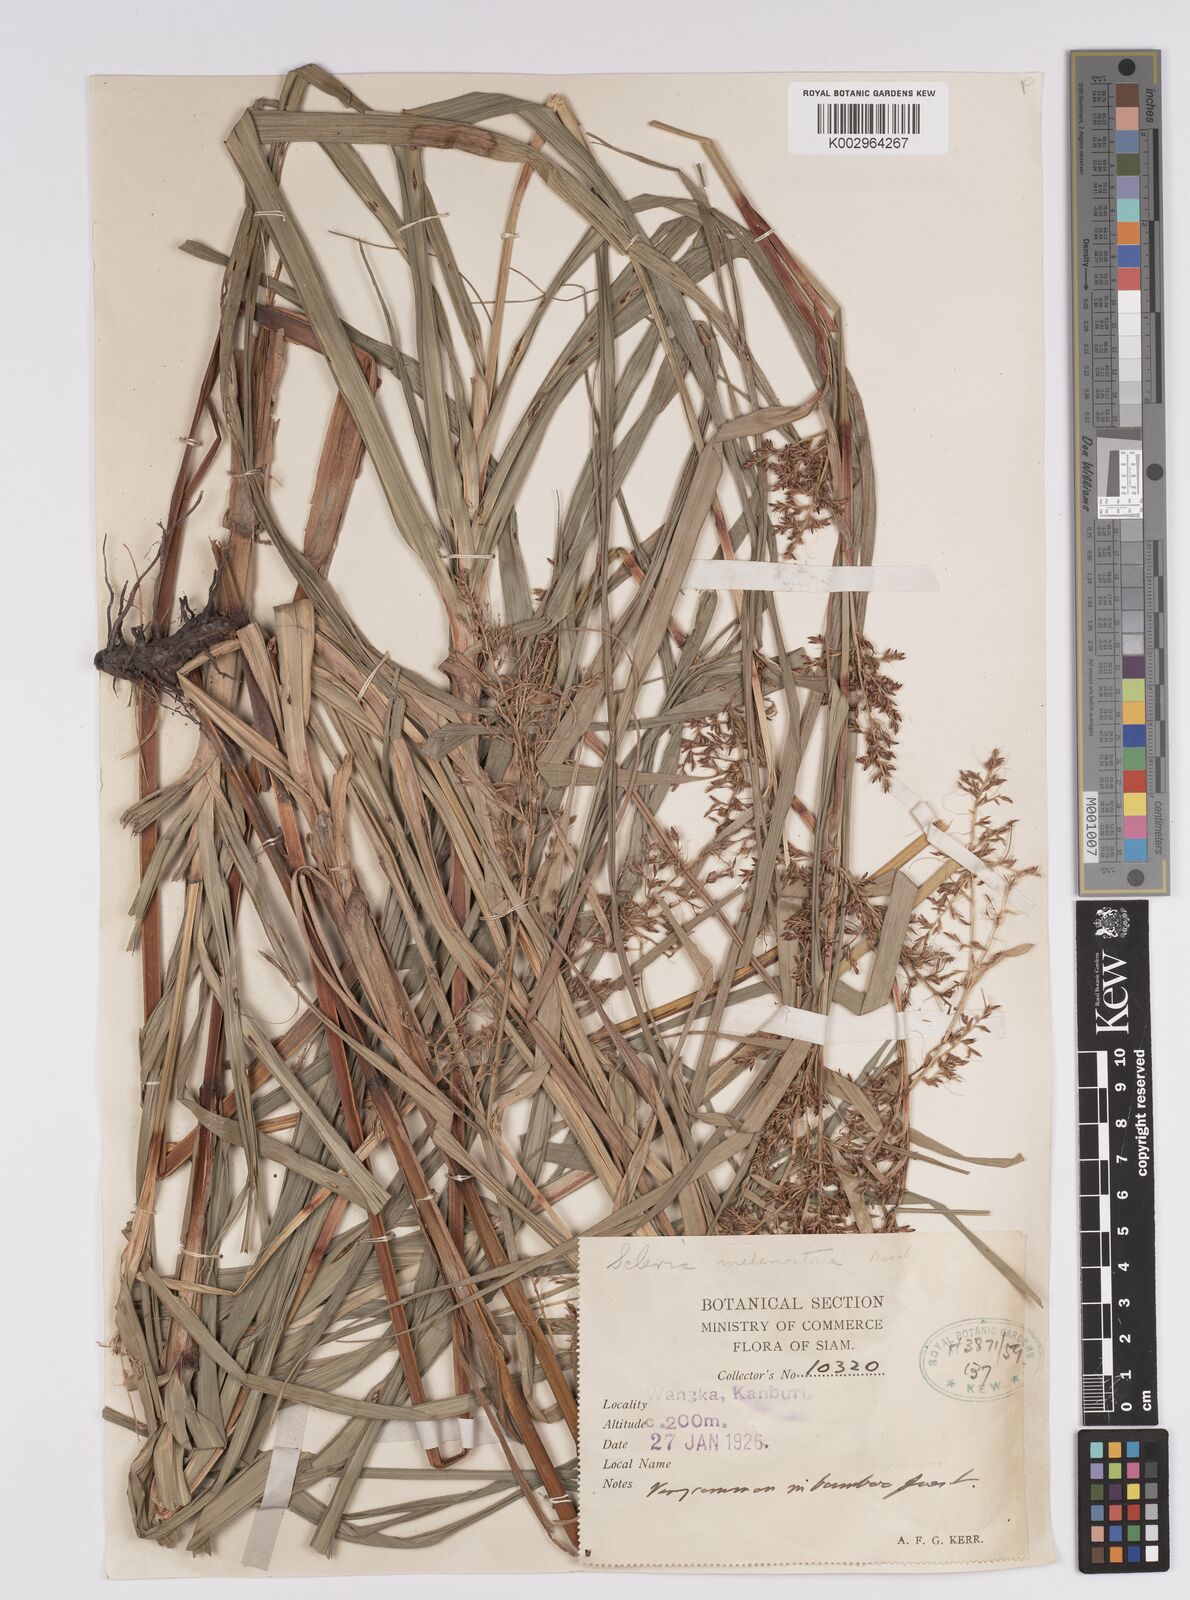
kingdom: Plantae
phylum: Tracheophyta
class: Liliopsida
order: Poales
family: Cyperaceae
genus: Scleria
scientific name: Scleria
